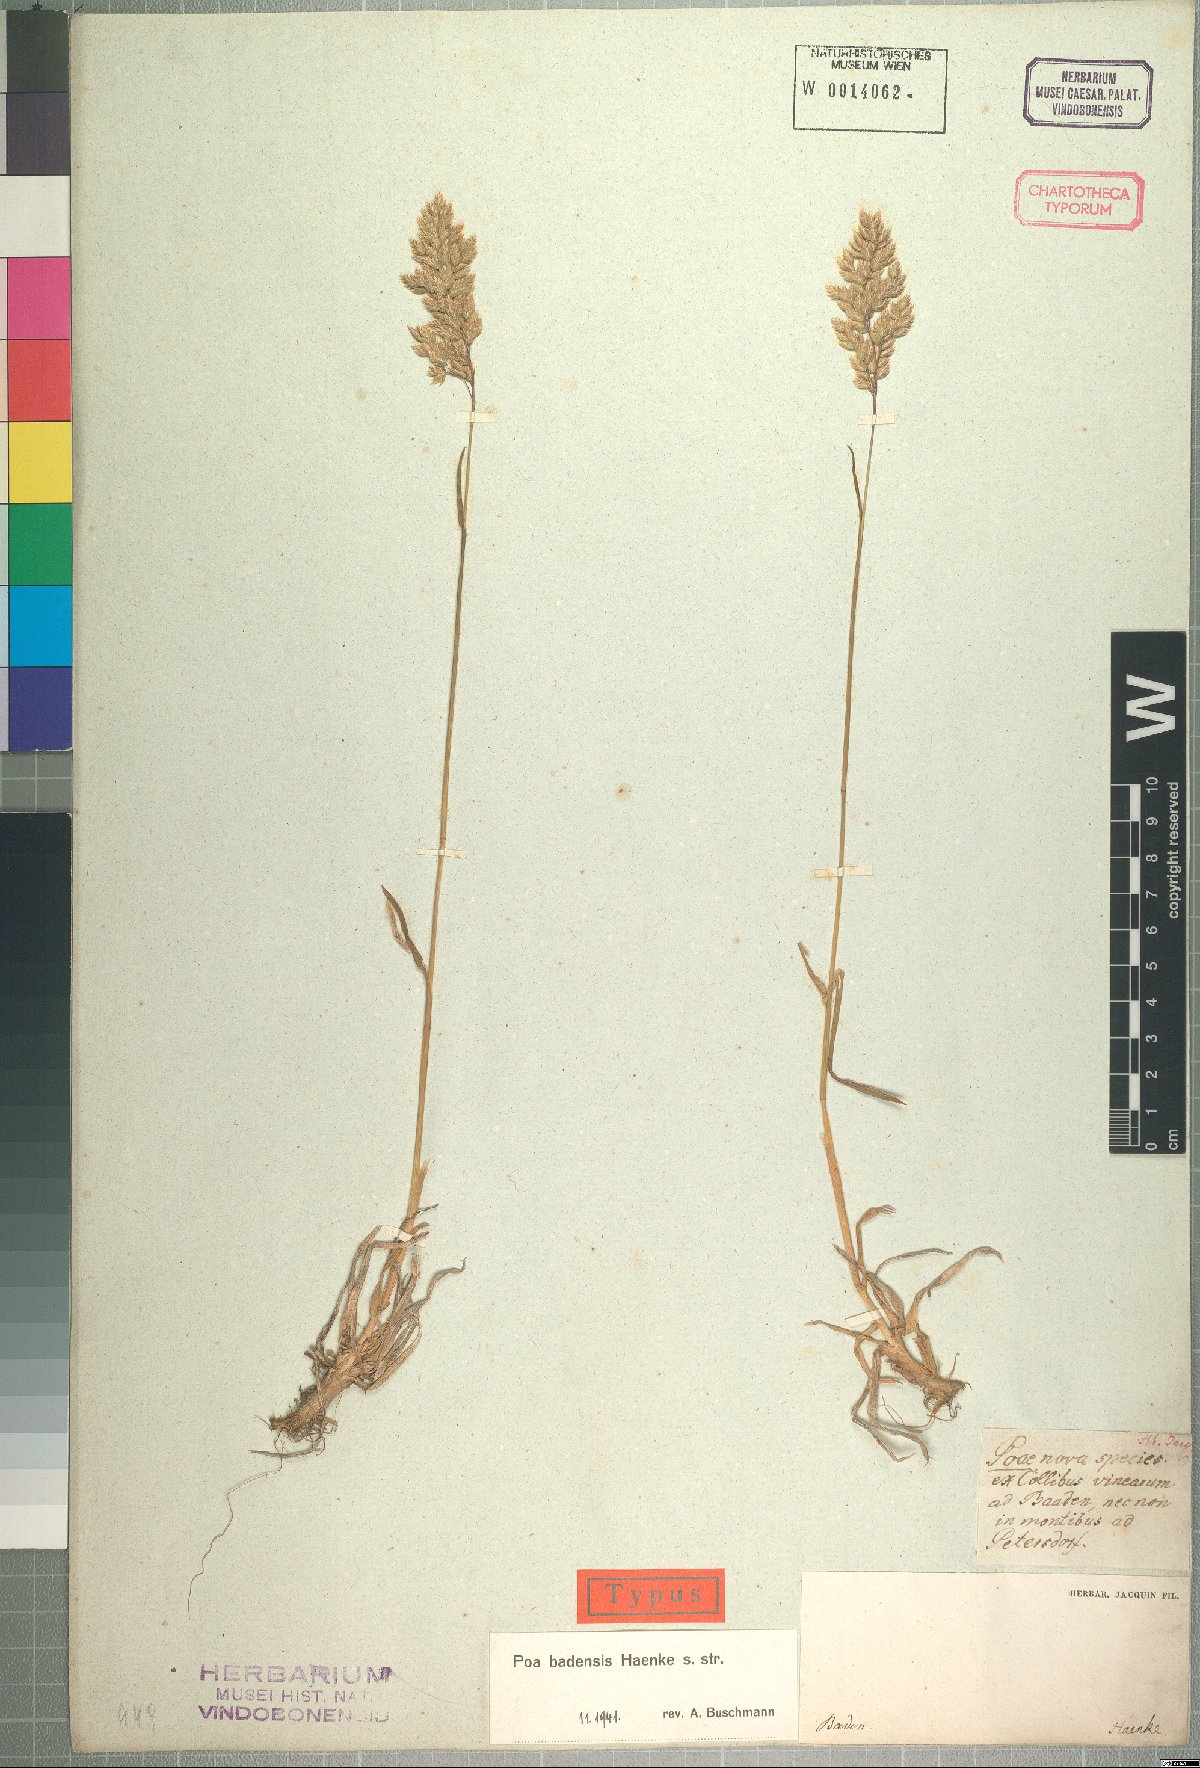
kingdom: Plantae
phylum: Tracheophyta
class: Liliopsida
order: Poales
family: Poaceae
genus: Poa
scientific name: Poa badensis
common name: Baden's bluegrass
